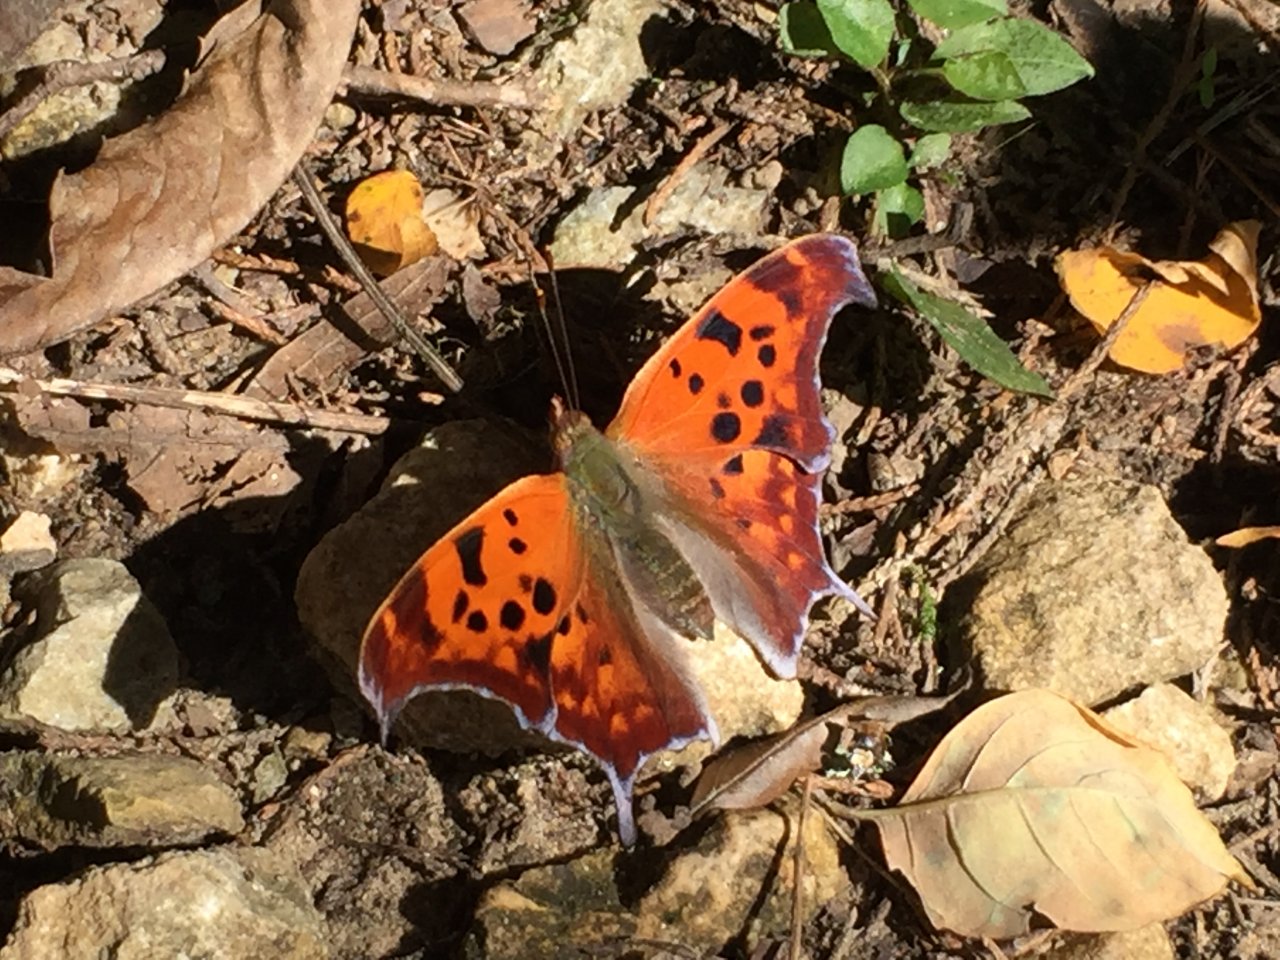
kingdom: Animalia
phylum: Arthropoda
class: Insecta
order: Lepidoptera
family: Nymphalidae
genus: Polygonia
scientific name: Polygonia interrogationis
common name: Question Mark
